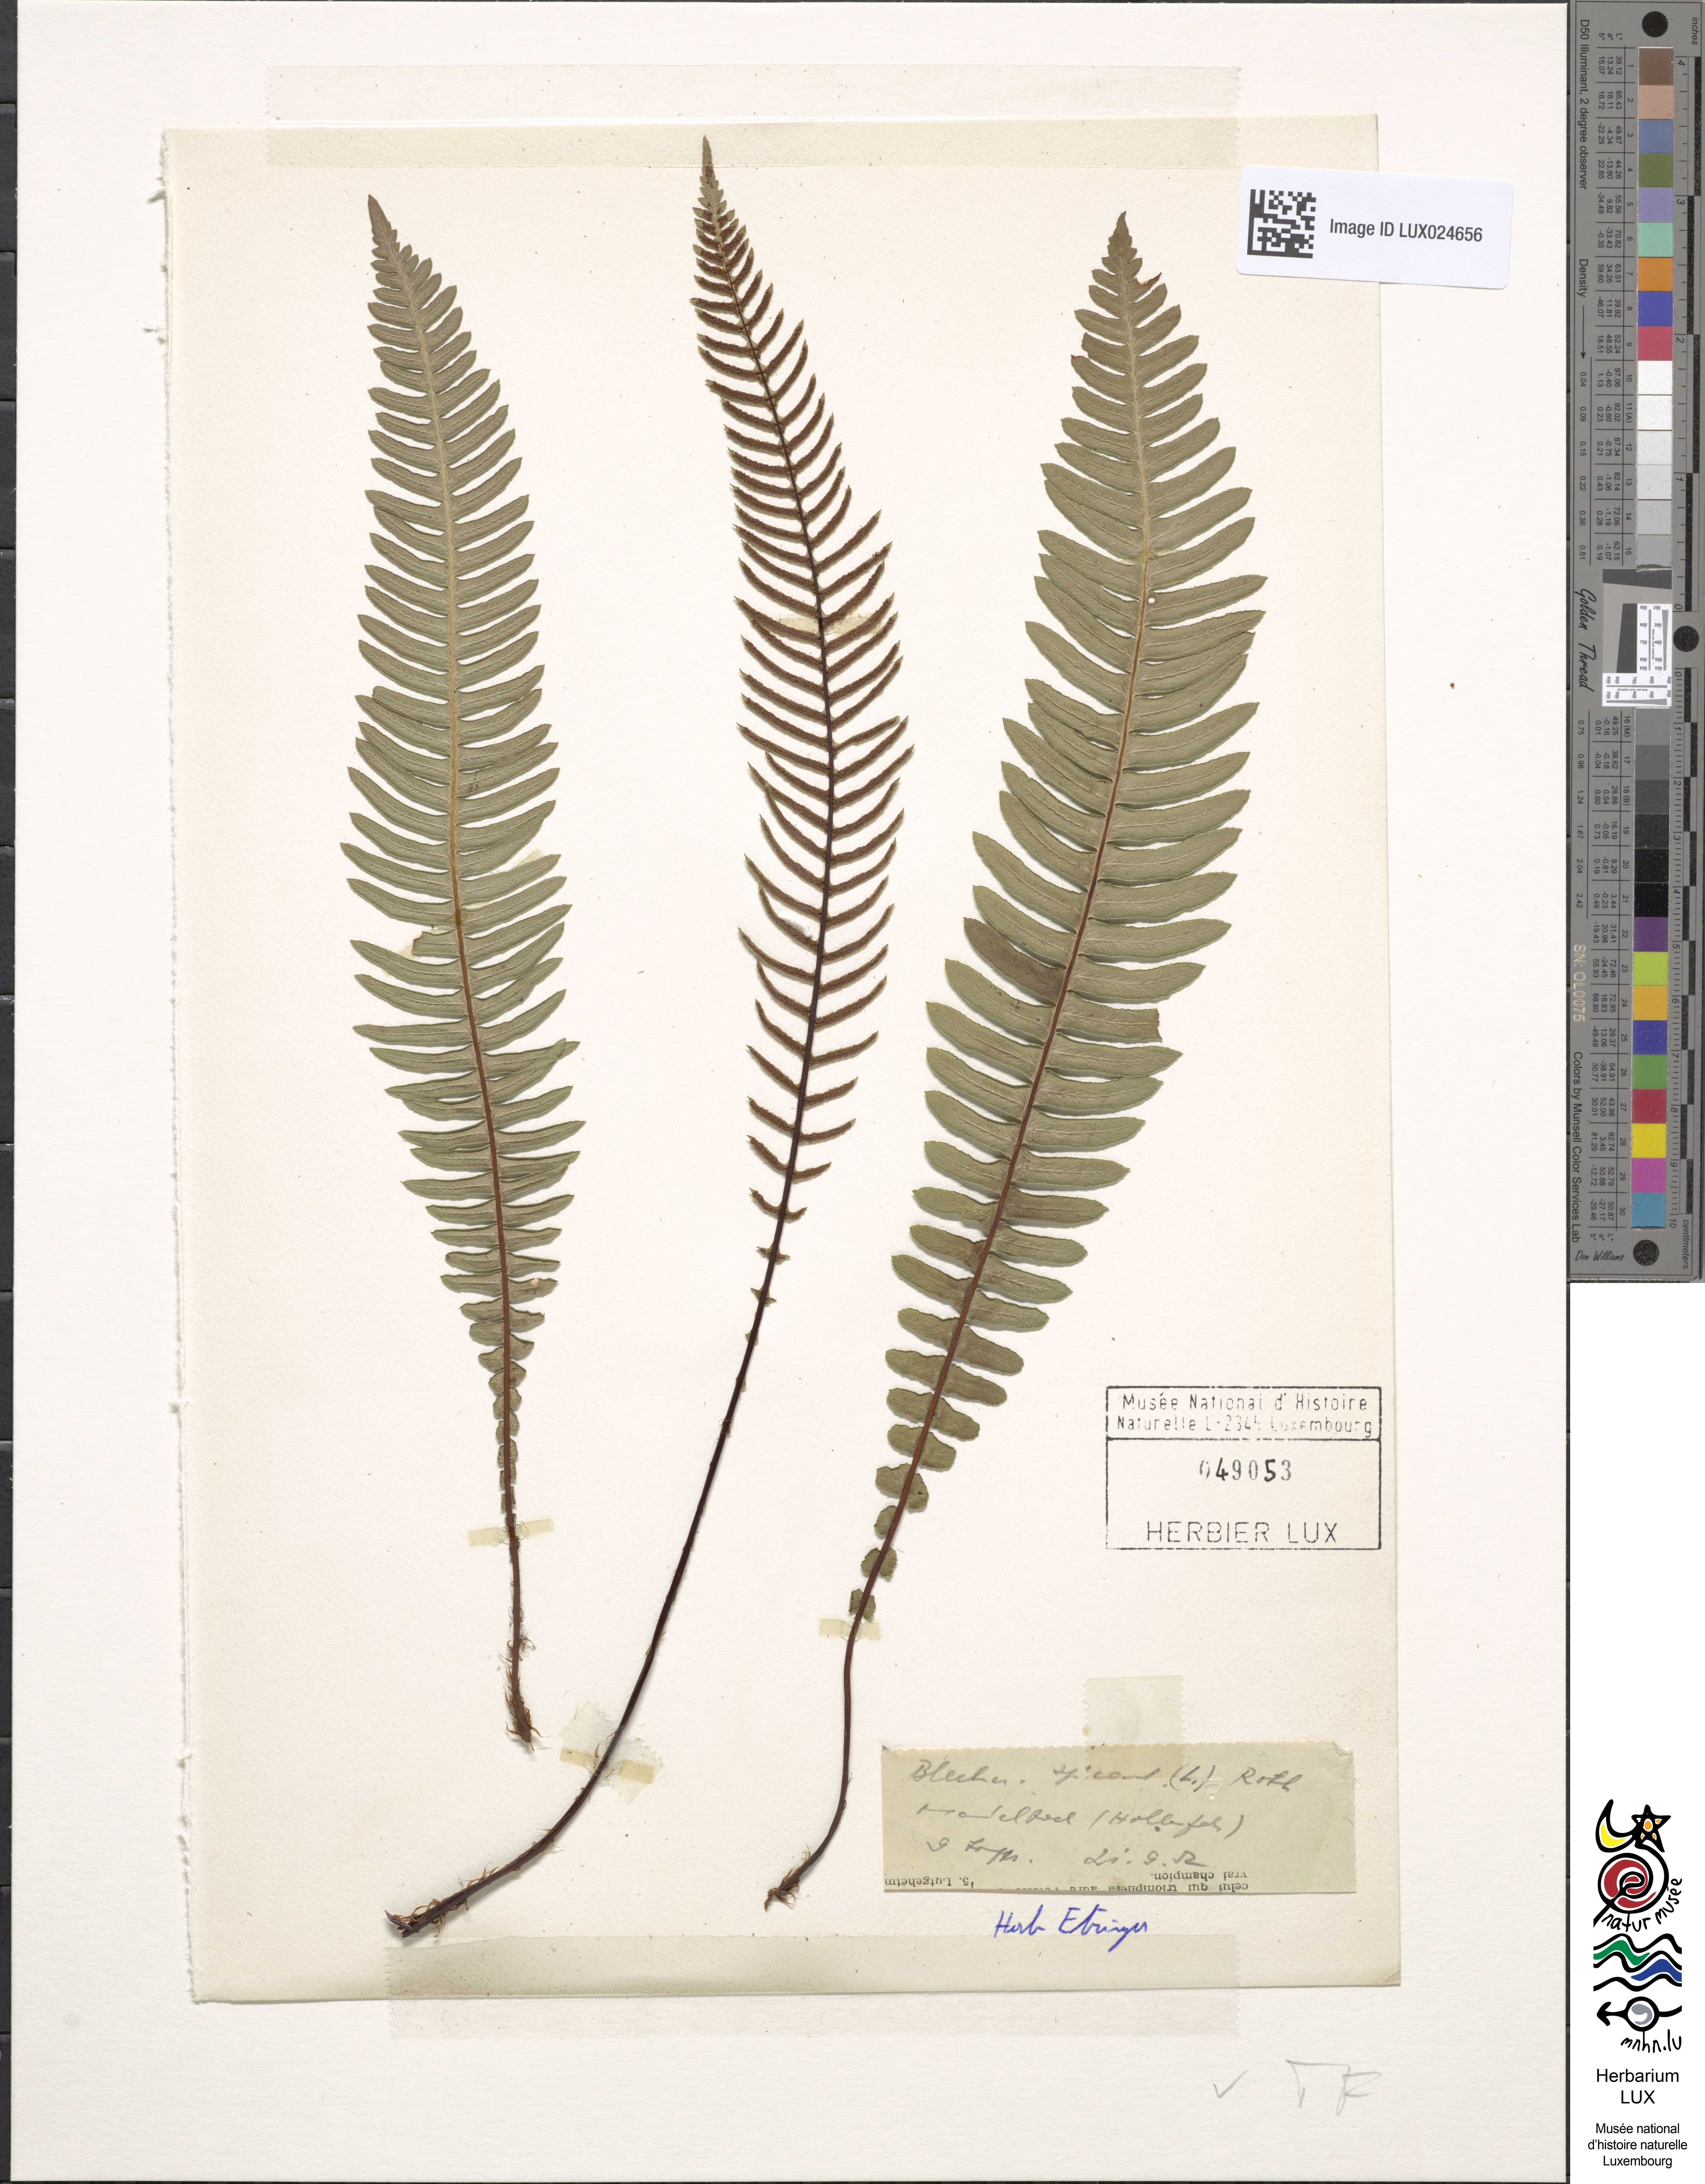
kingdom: Plantae
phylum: Tracheophyta
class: Polypodiopsida
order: Polypodiales
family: Blechnaceae
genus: Struthiopteris
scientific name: Struthiopteris spicant
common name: Deer fern
